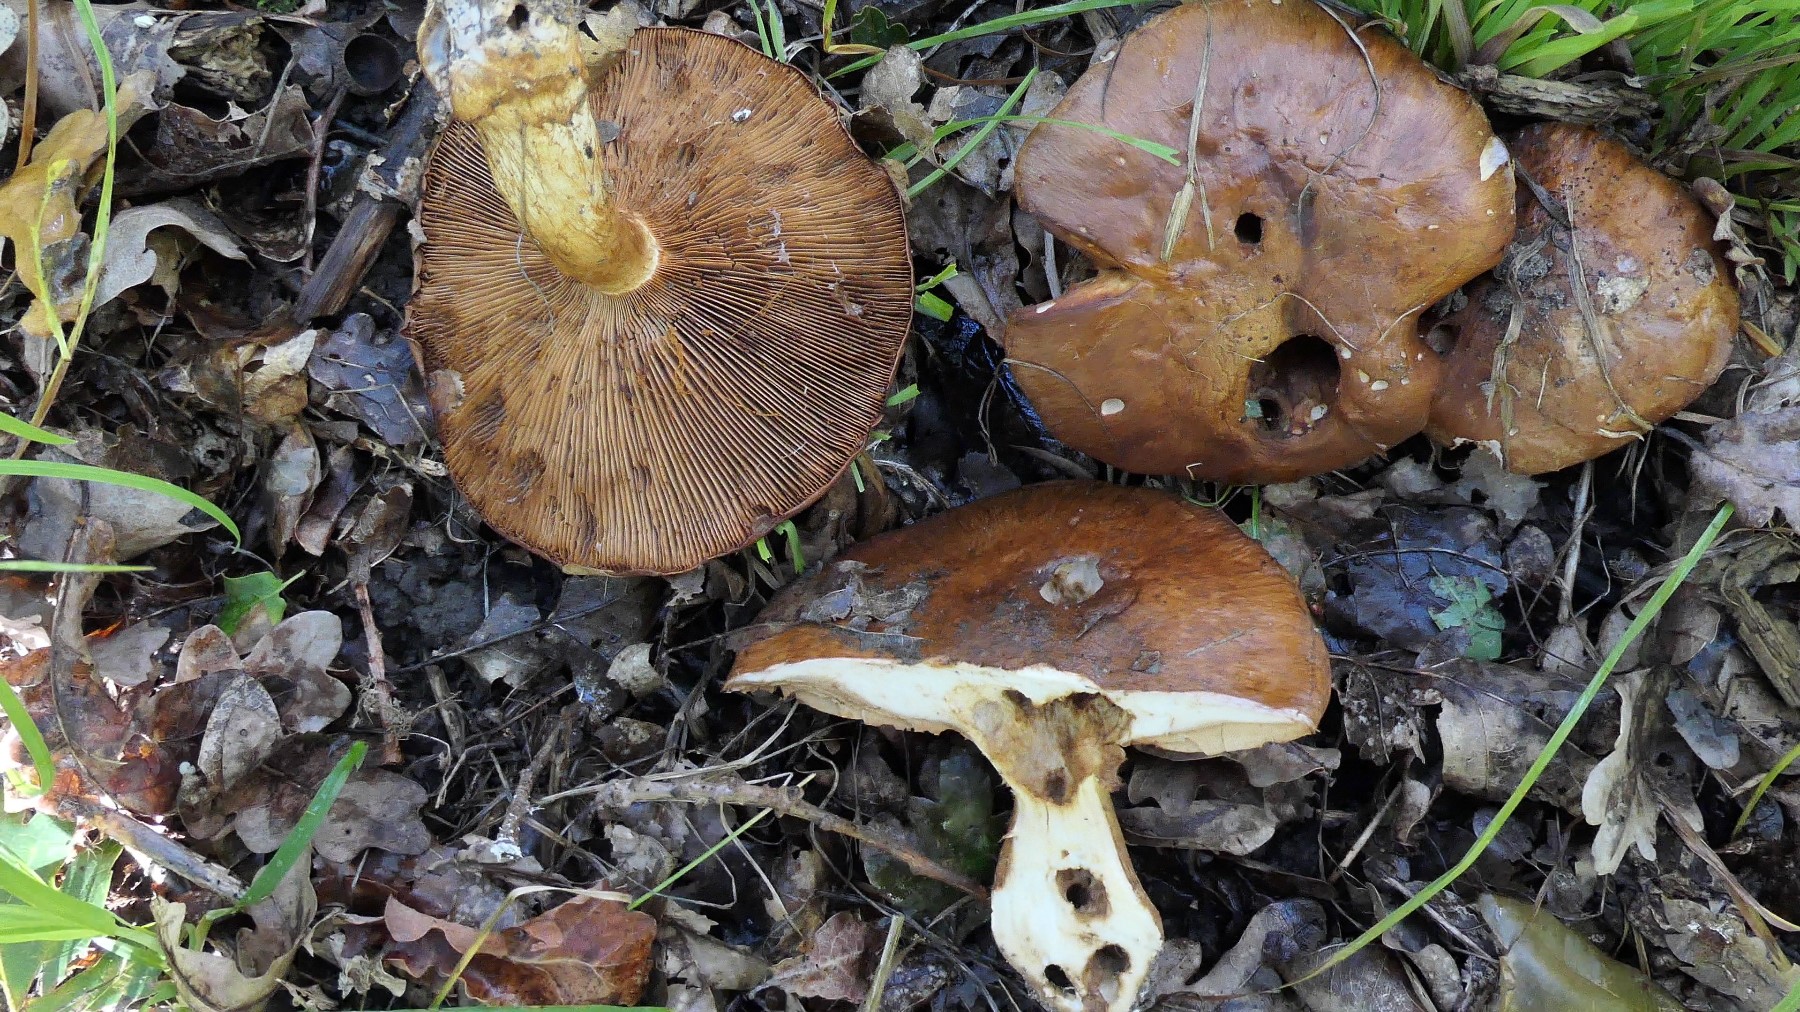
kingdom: Fungi
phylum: Basidiomycota
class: Agaricomycetes
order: Agaricales
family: Cortinariaceae
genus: Cortinarius
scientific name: Cortinarius
